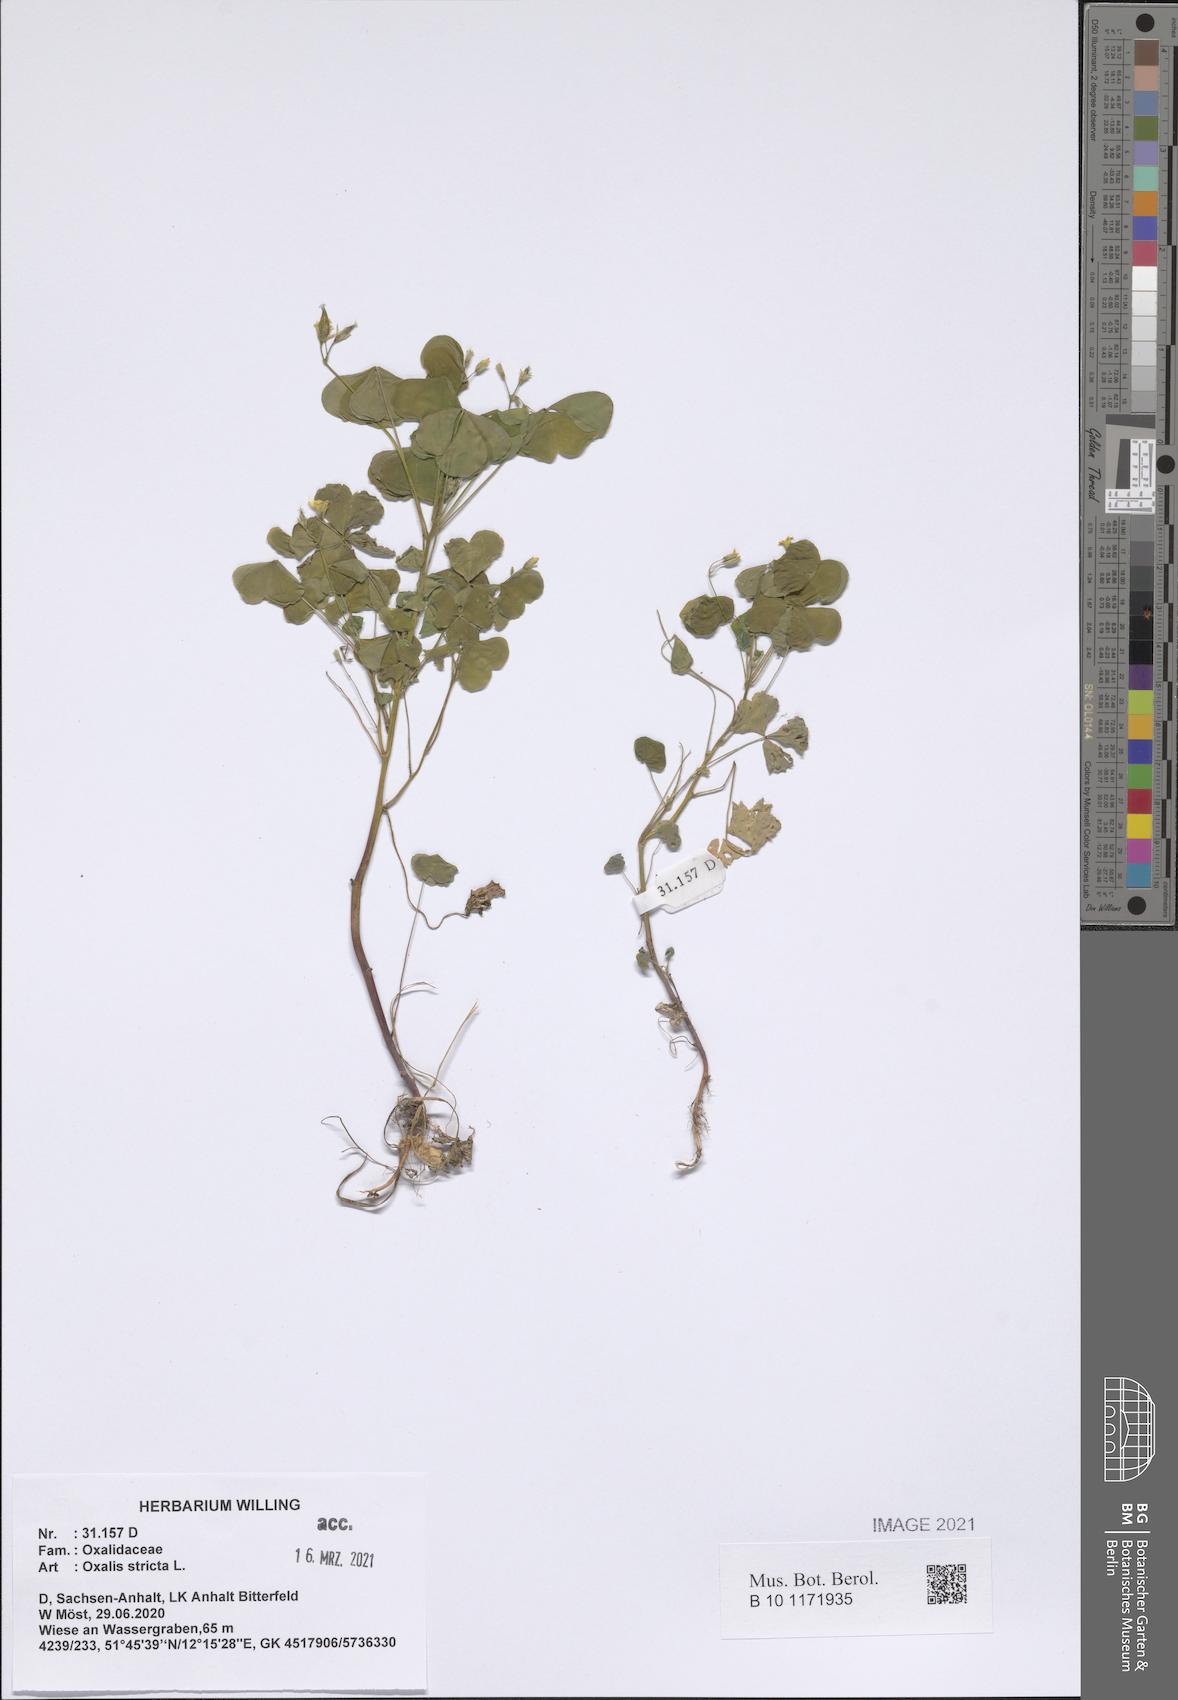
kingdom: Plantae
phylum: Tracheophyta
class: Magnoliopsida
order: Oxalidales
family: Oxalidaceae
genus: Oxalis
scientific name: Oxalis stricta
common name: Upright yellow-sorrel
